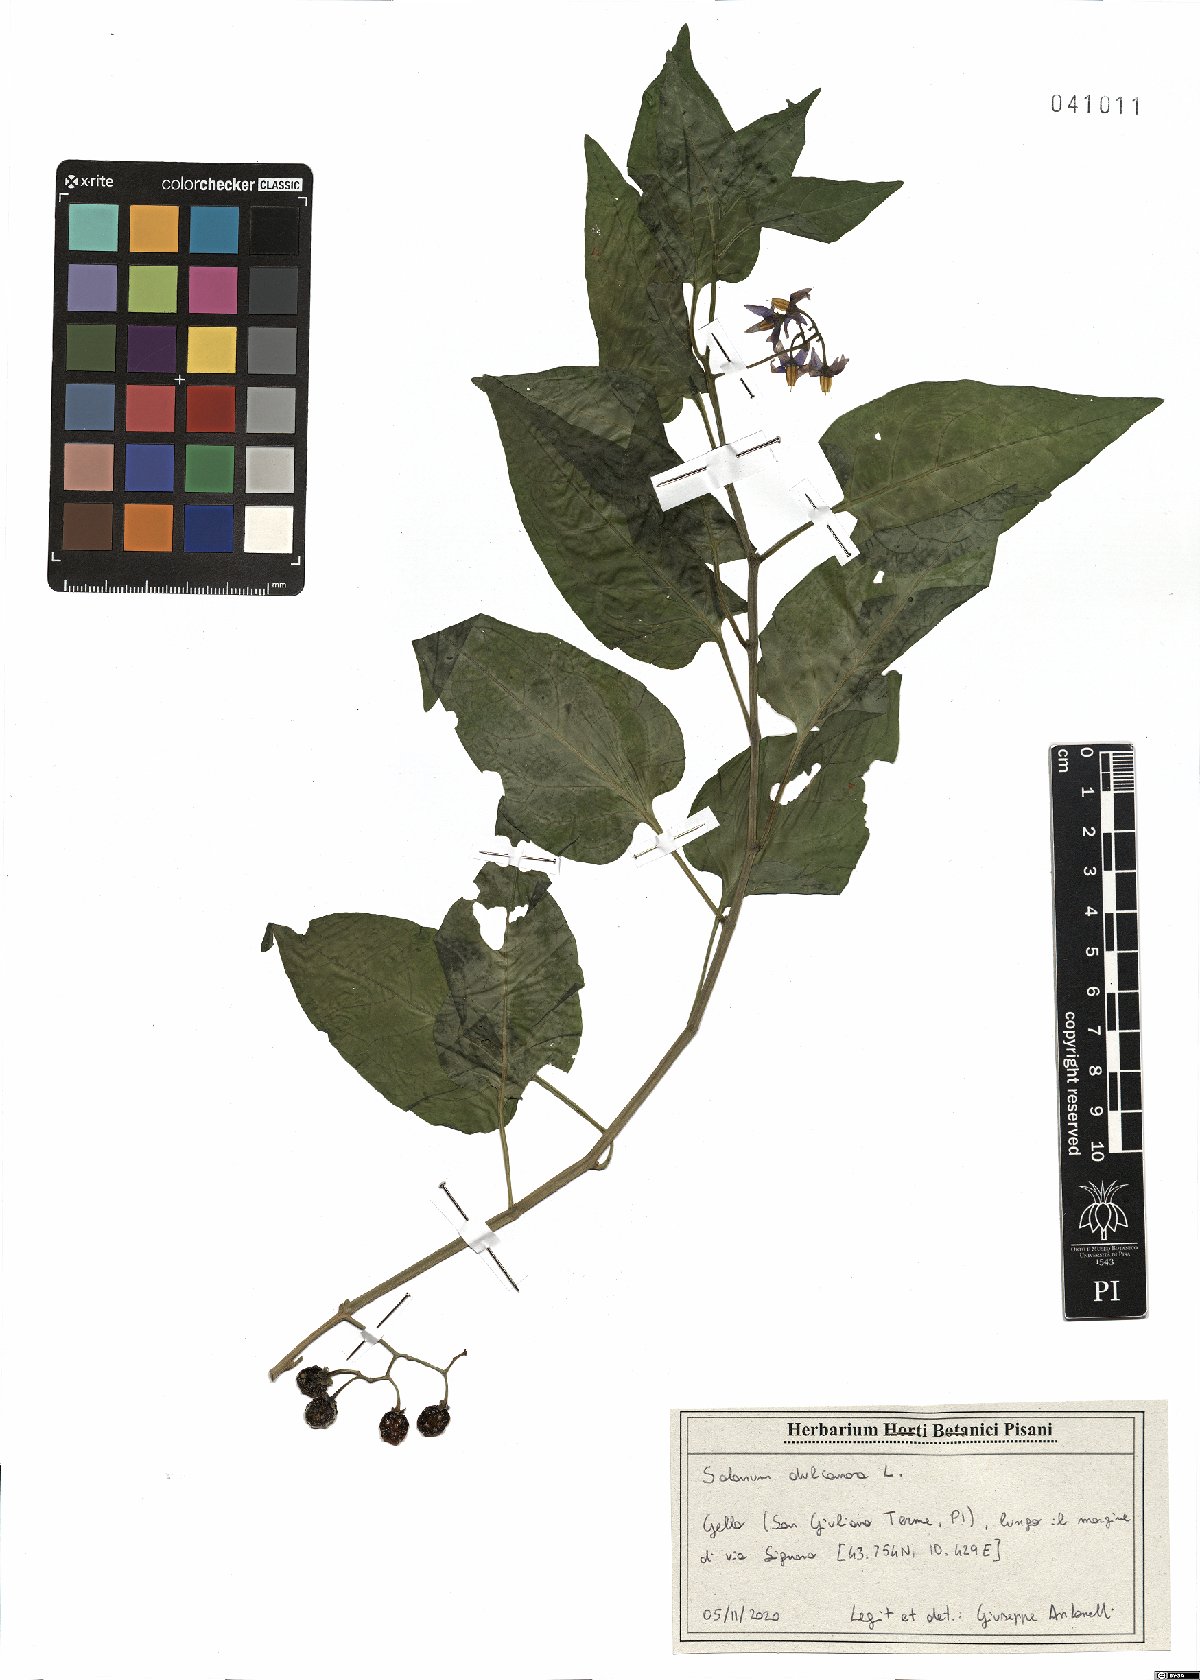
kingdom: Plantae
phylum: Tracheophyta
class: Magnoliopsida
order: Solanales
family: Solanaceae
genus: Solanum
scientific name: Solanum dulcamara
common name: Climbing nightshade
